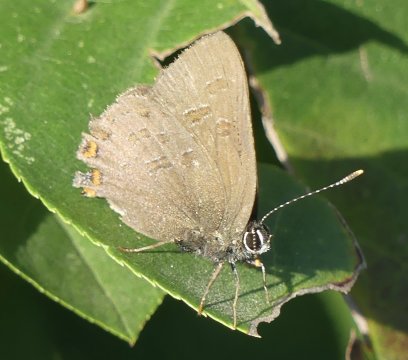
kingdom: Animalia
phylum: Arthropoda
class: Insecta
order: Lepidoptera
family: Lycaenidae
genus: Satyrium
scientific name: Satyrium liparops
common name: Striped Hairstreak
